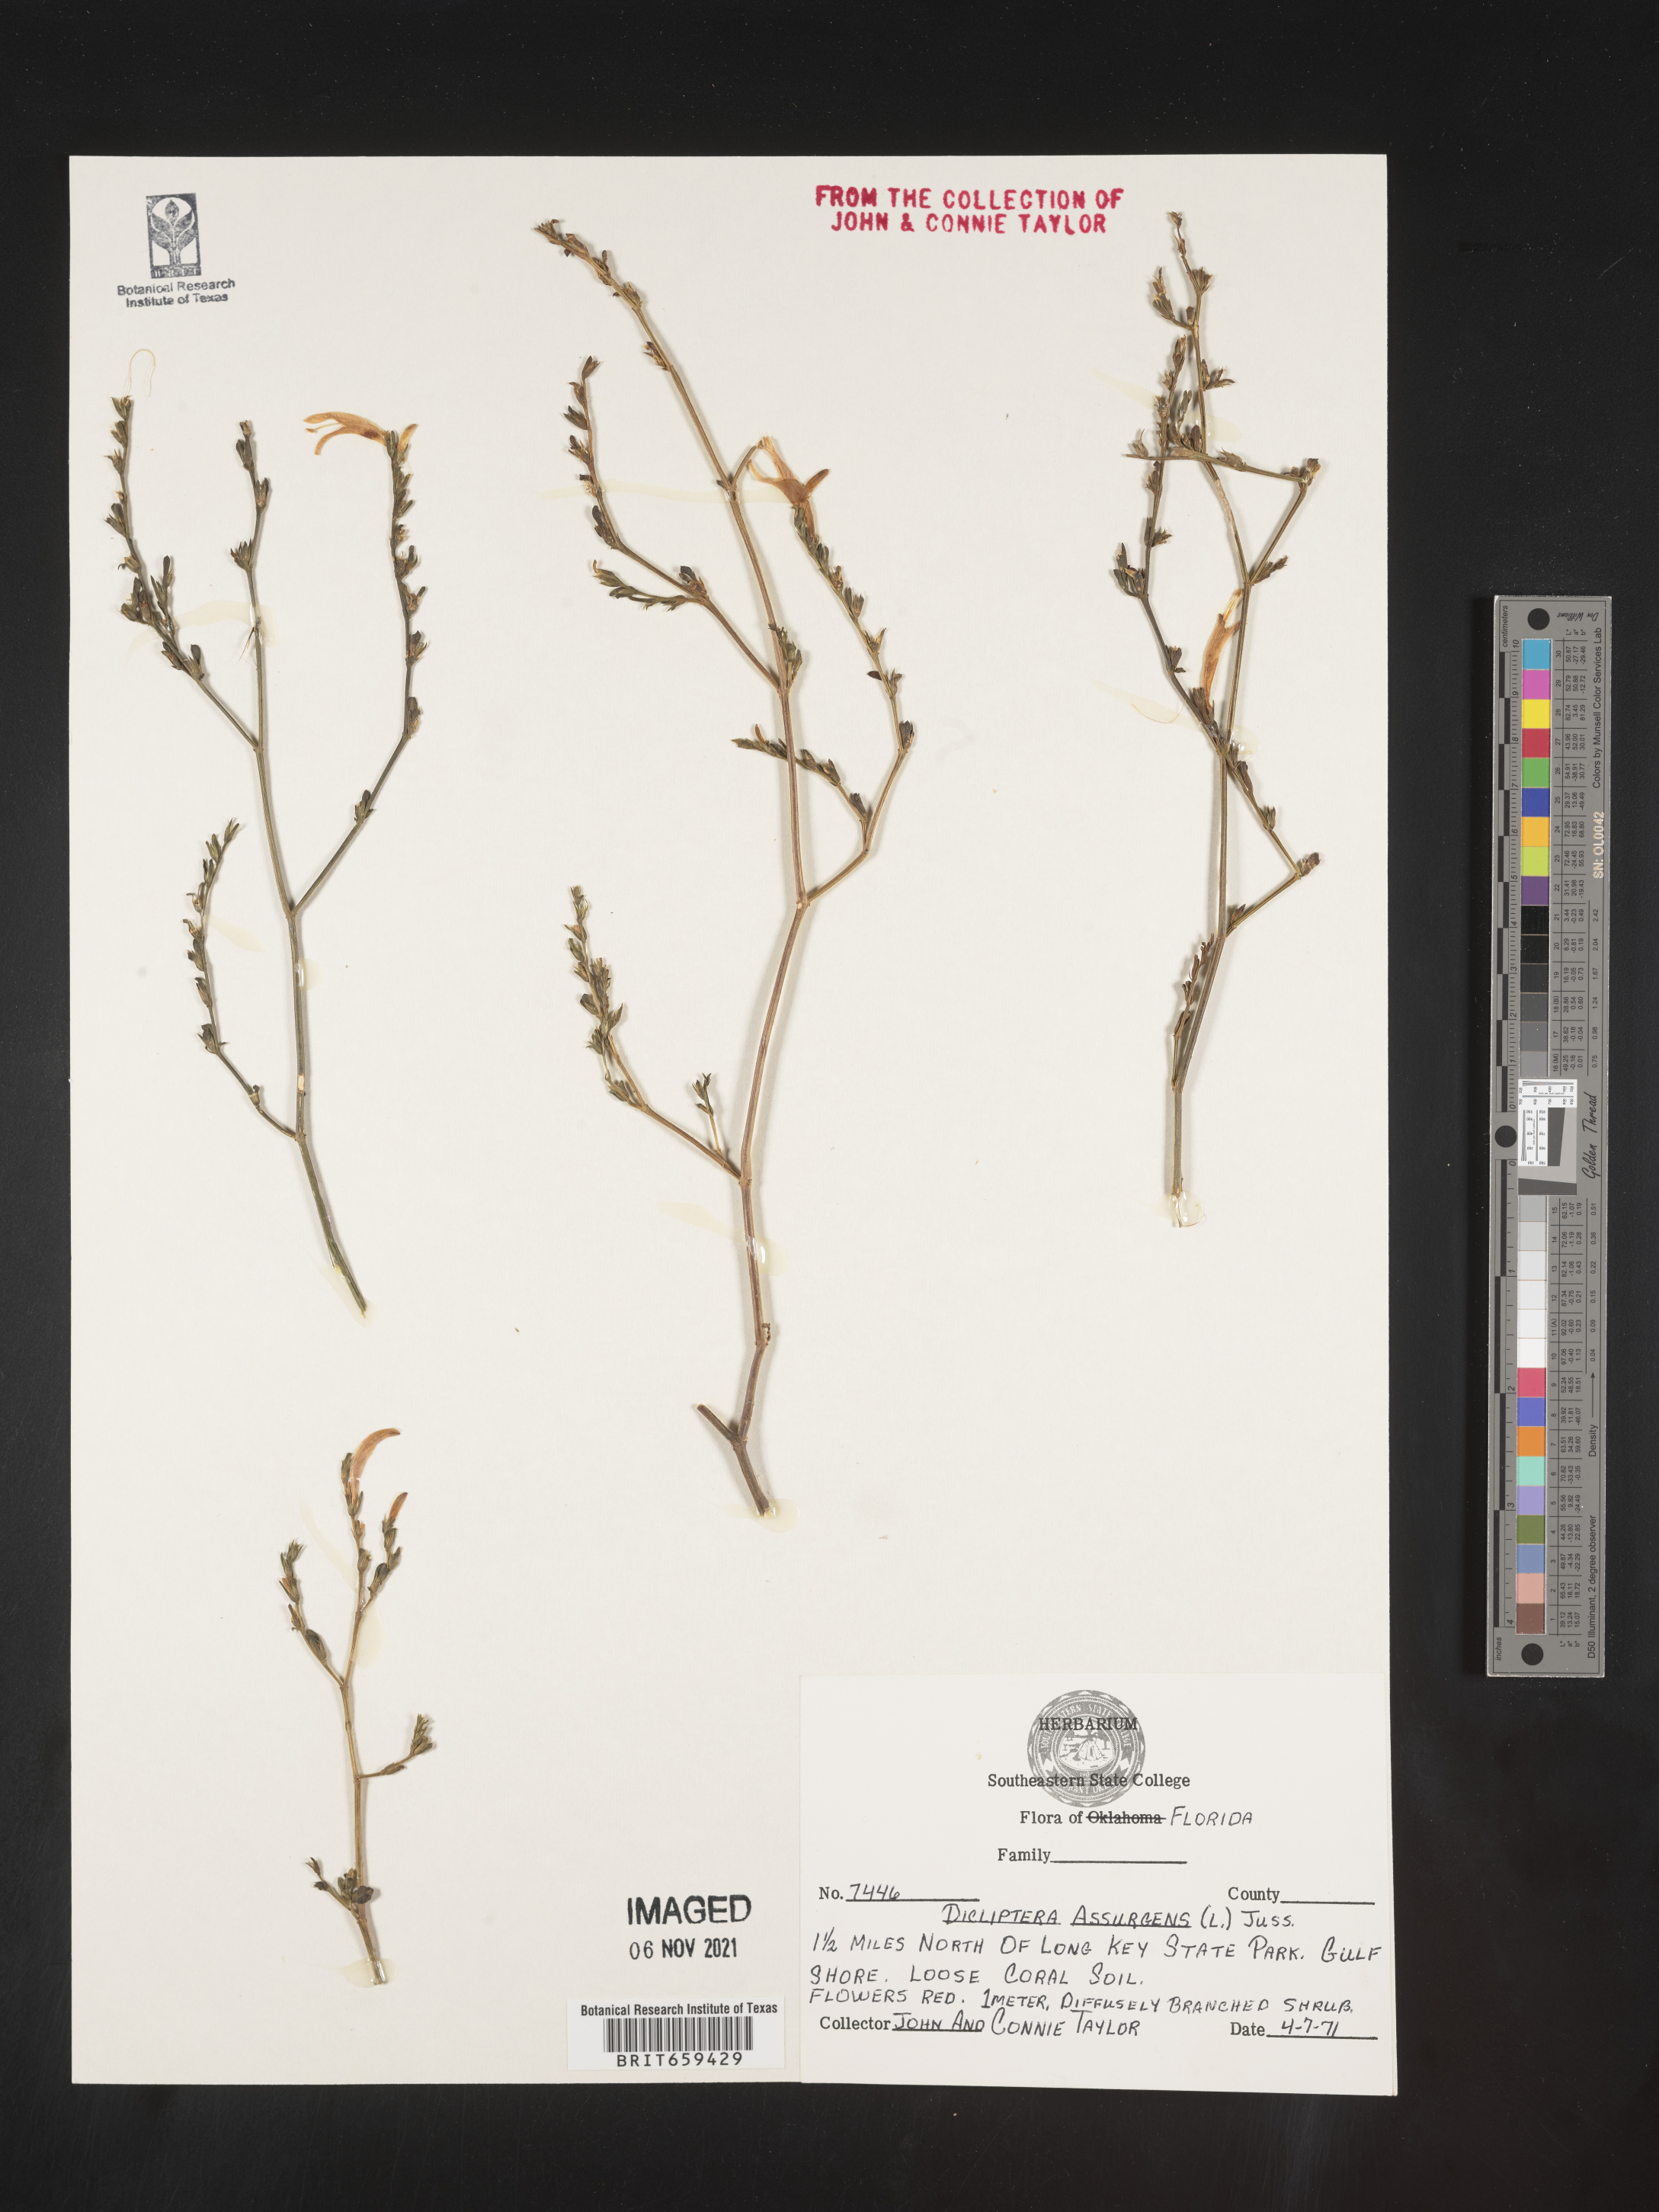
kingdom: Plantae
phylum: Tracheophyta
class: Magnoliopsida
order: Lamiales
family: Acanthaceae
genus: Dicliptera
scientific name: Dicliptera sexangularis
